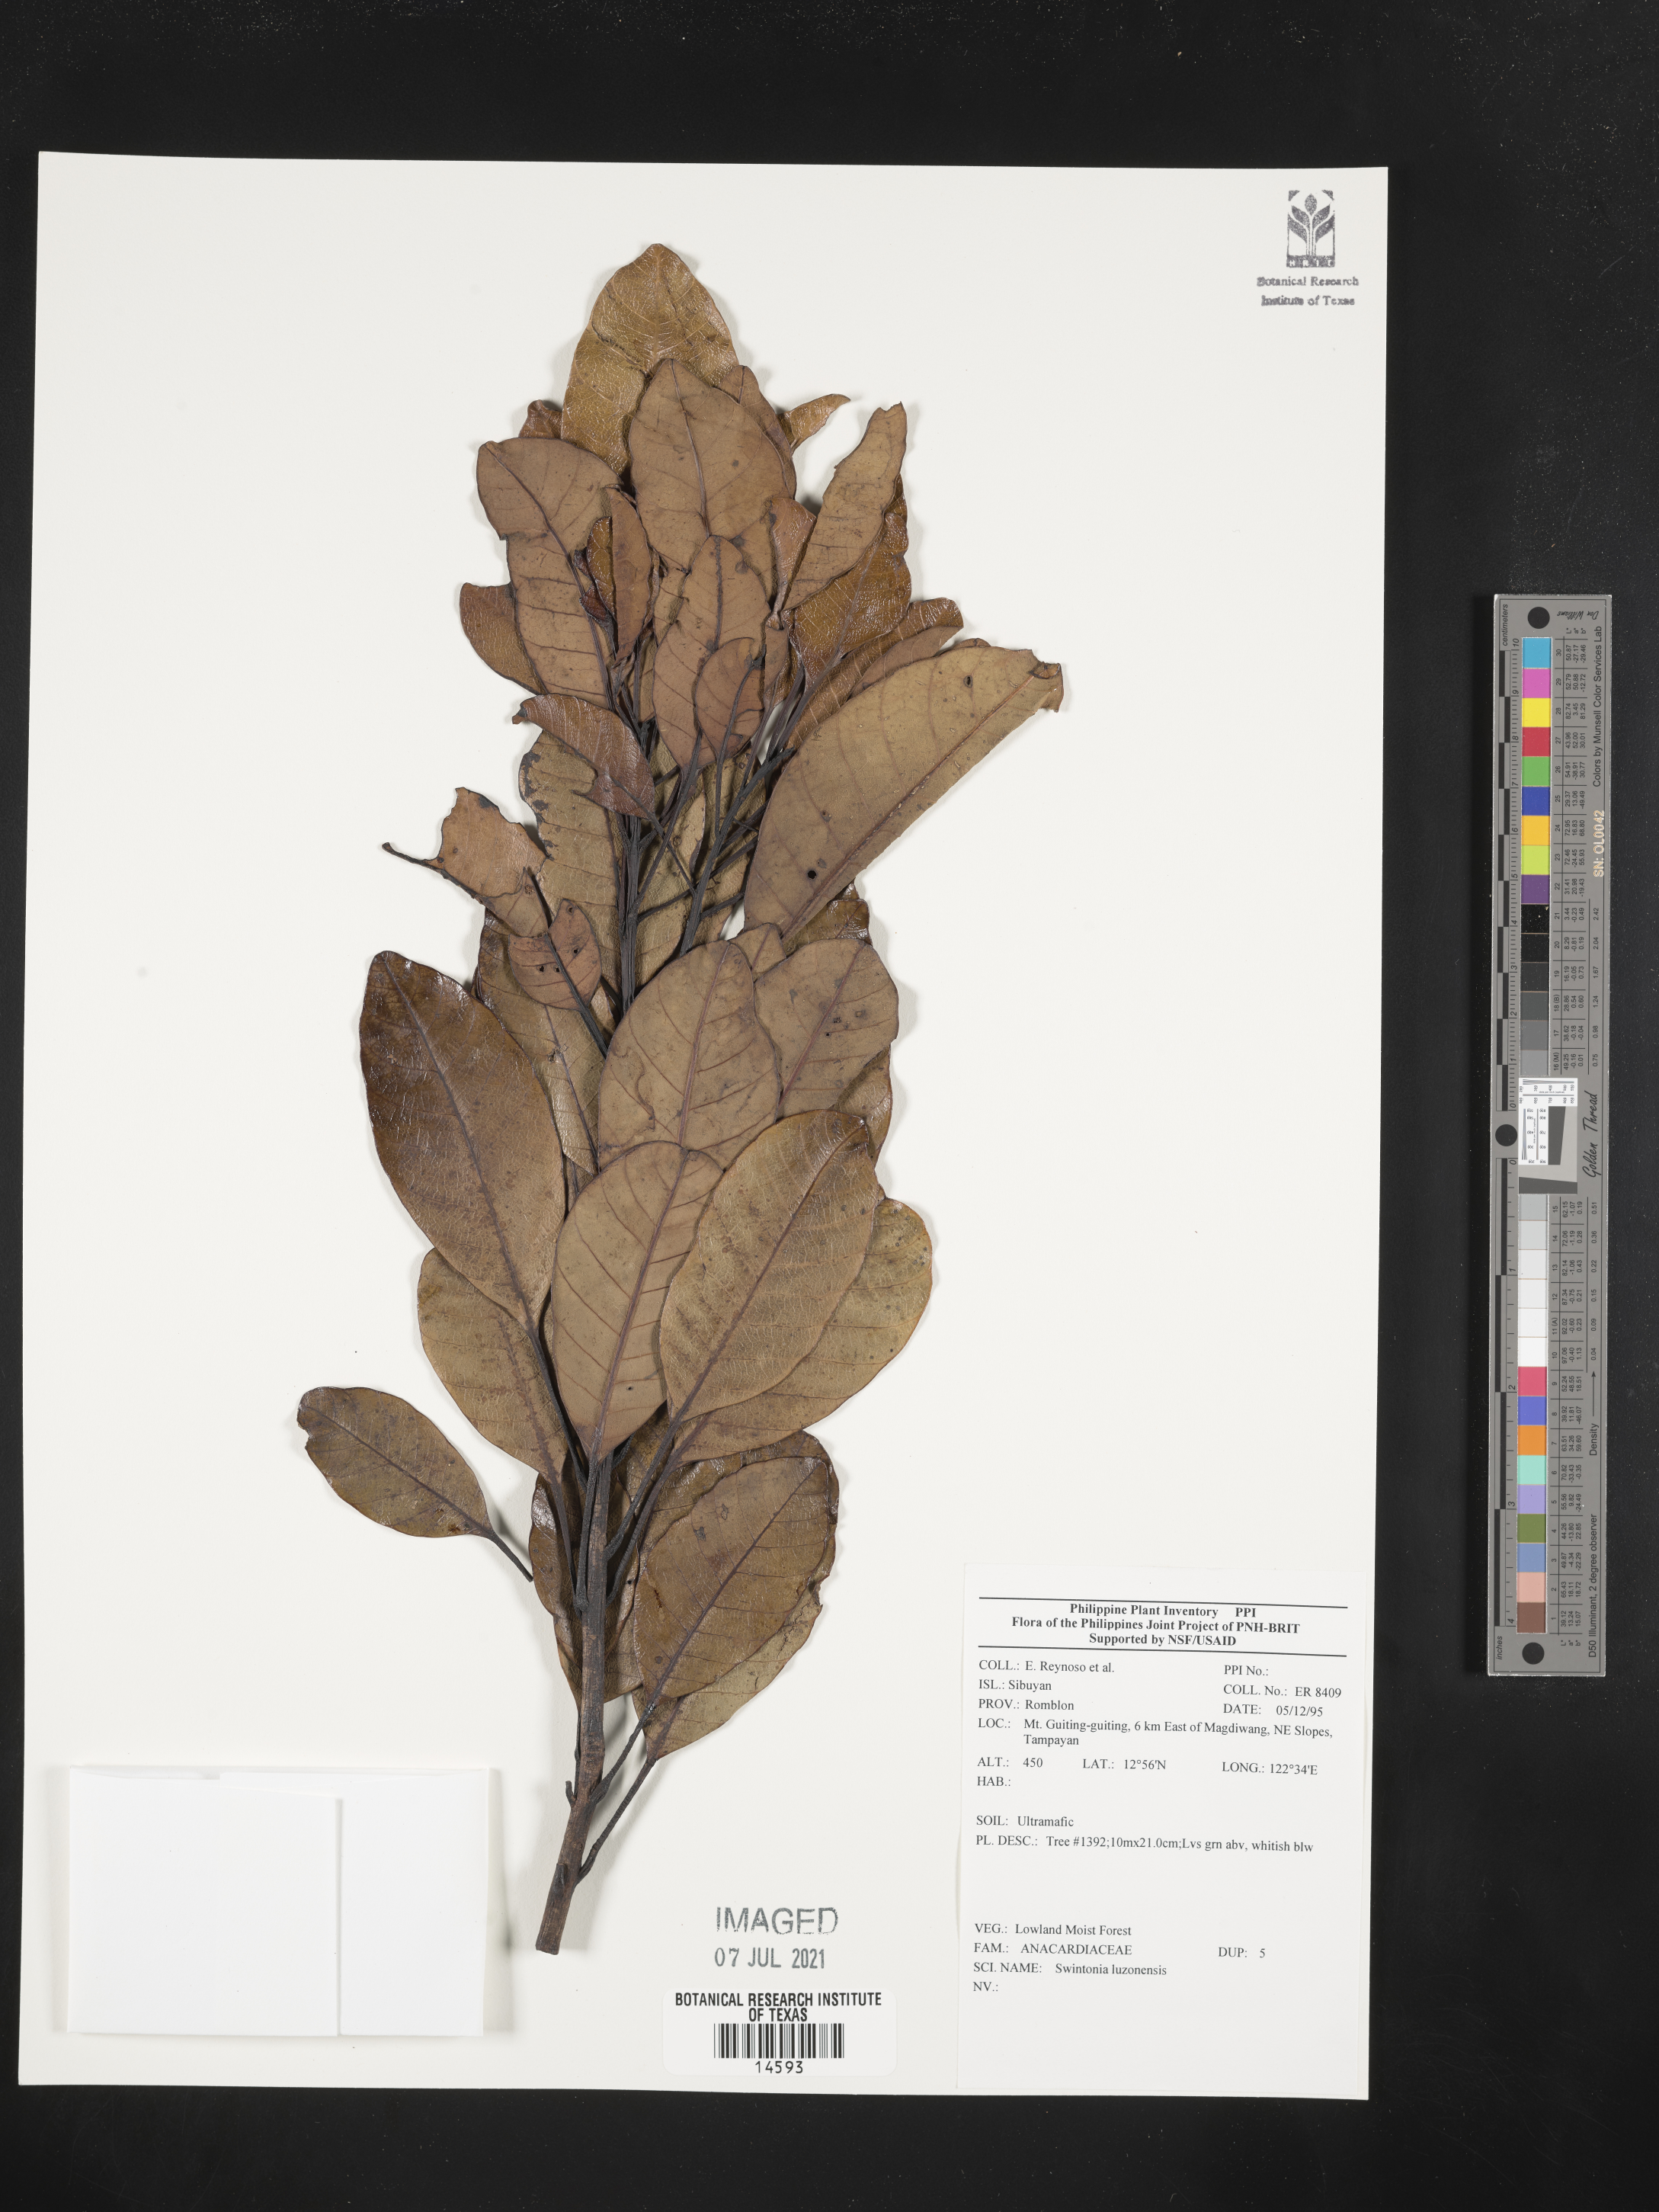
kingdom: Plantae
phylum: Tracheophyta
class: Magnoliopsida
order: Sapindales
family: Anacardiaceae
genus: Swintonia
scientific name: Swintonia acuta
